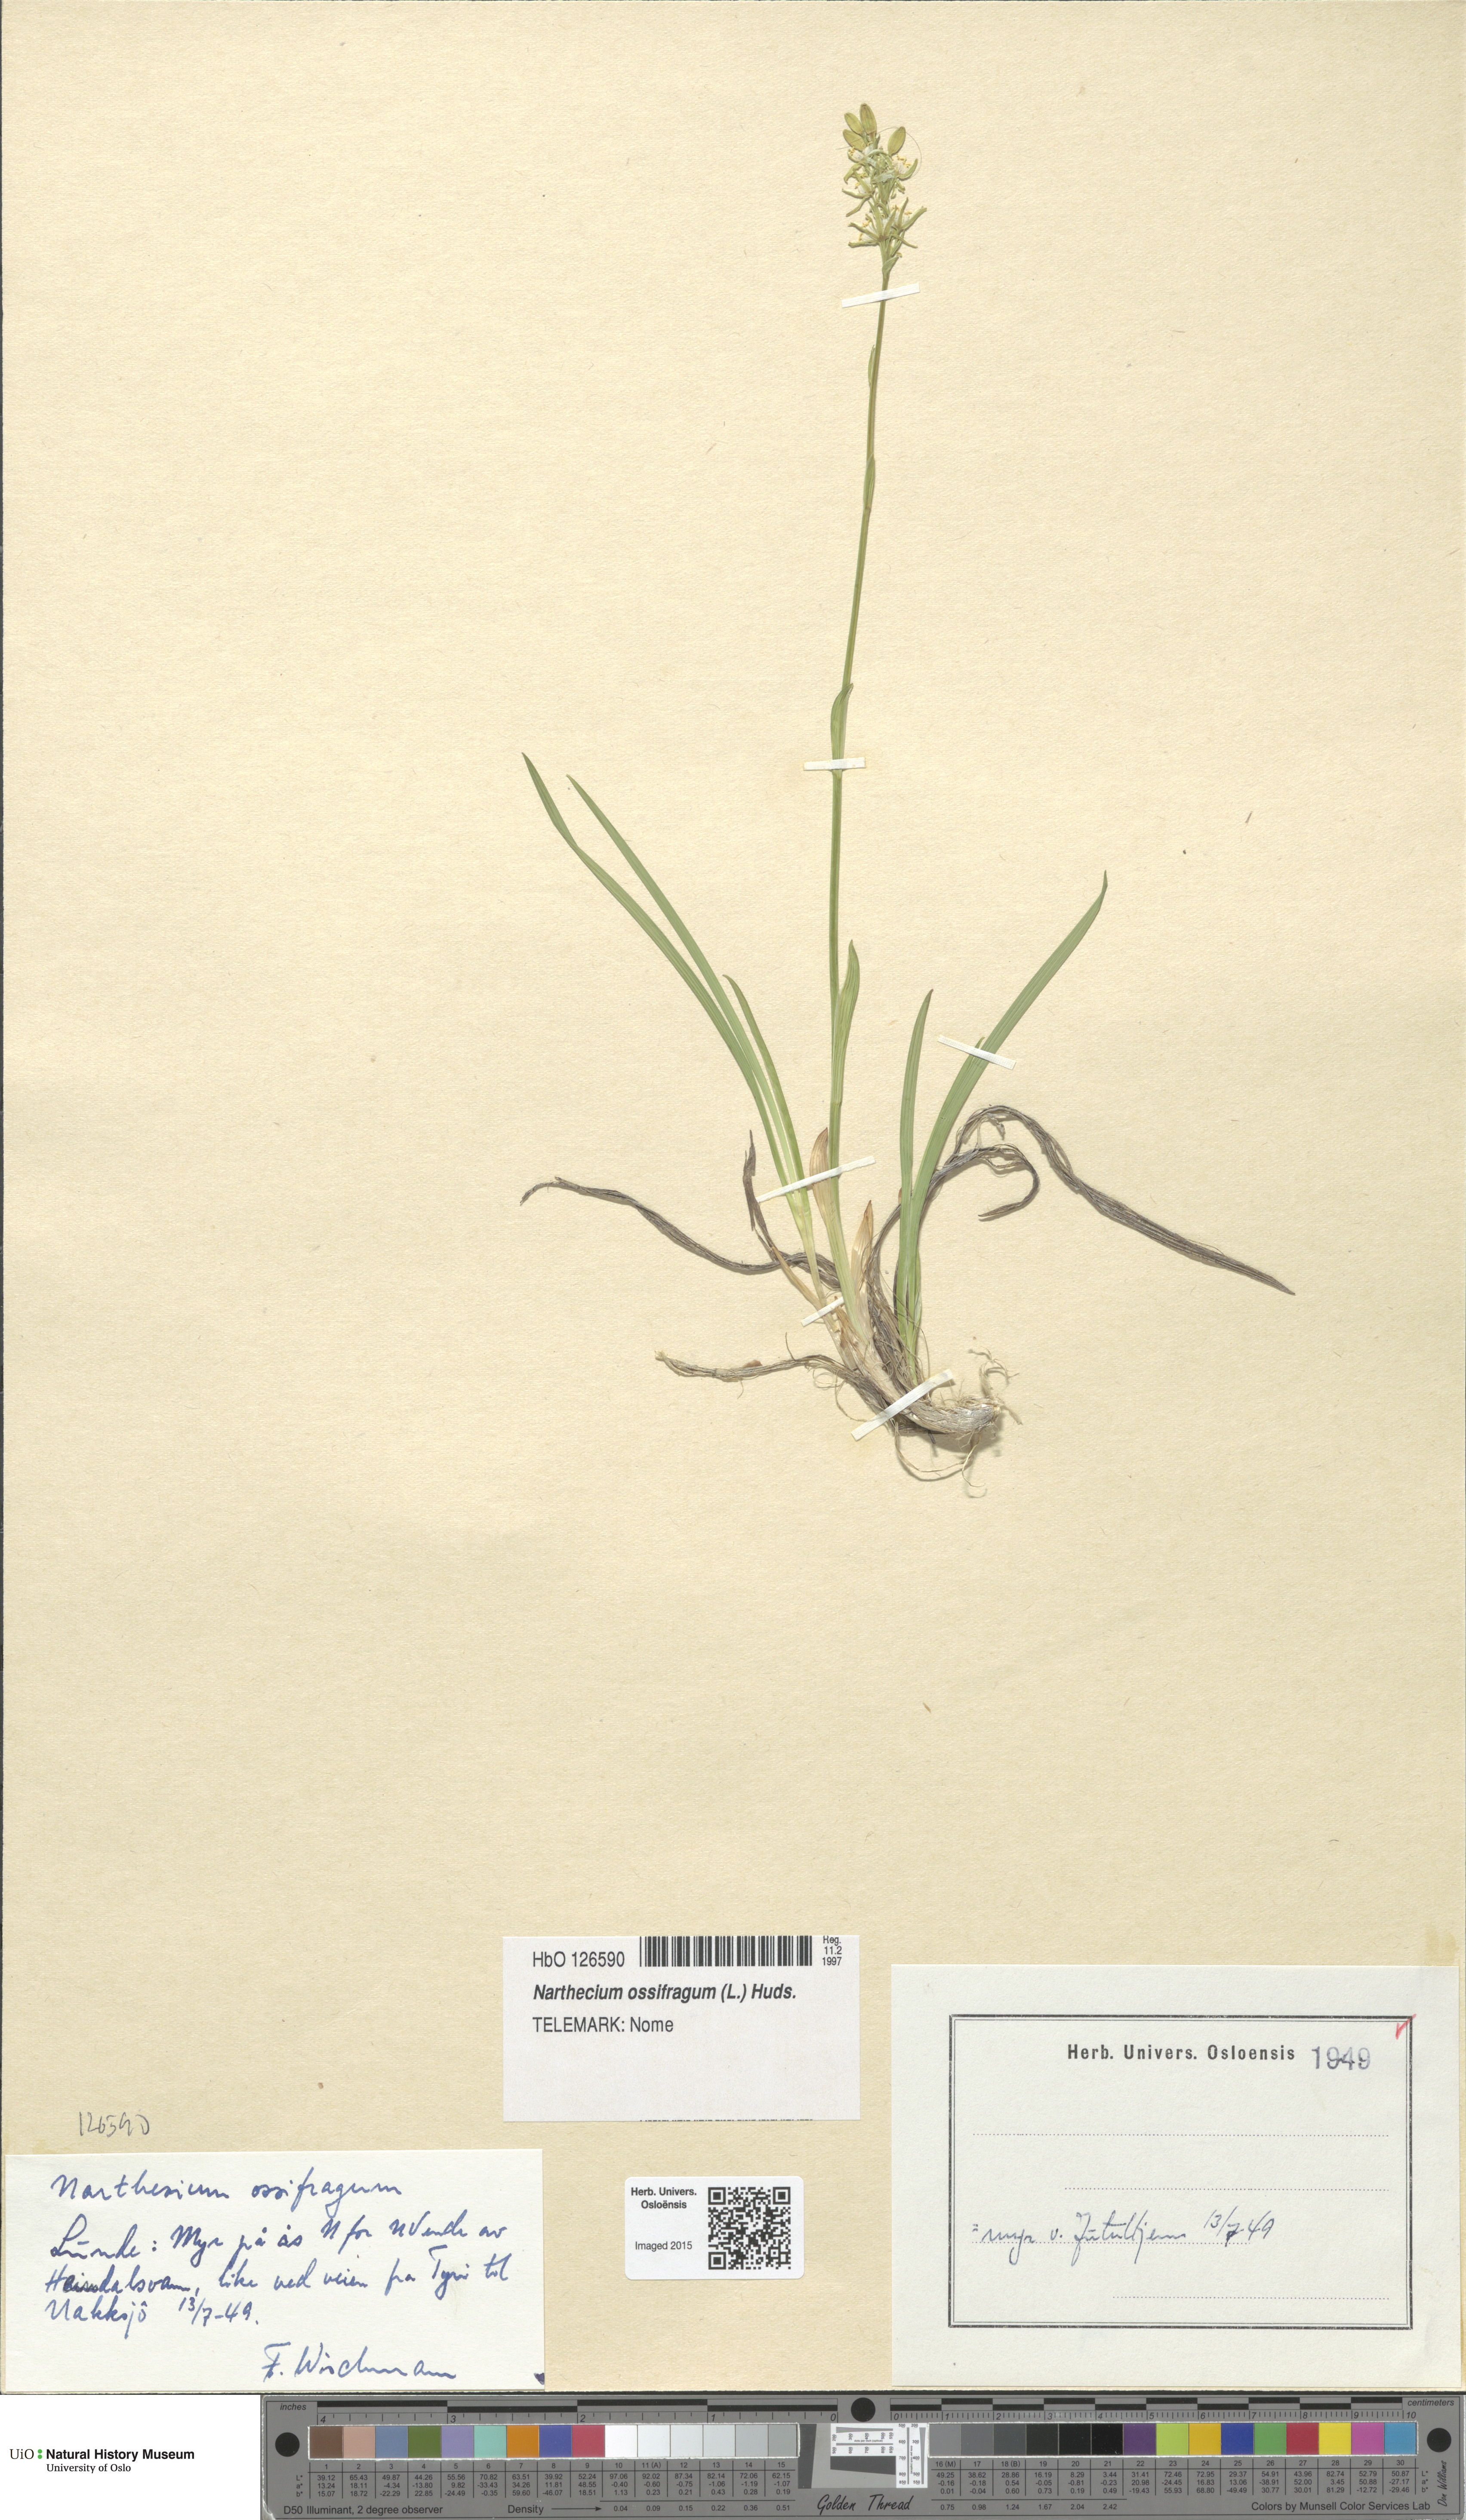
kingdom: Plantae
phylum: Tracheophyta
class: Liliopsida
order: Dioscoreales
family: Nartheciaceae
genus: Narthecium
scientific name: Narthecium ossifragum
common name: Bog asphodel
